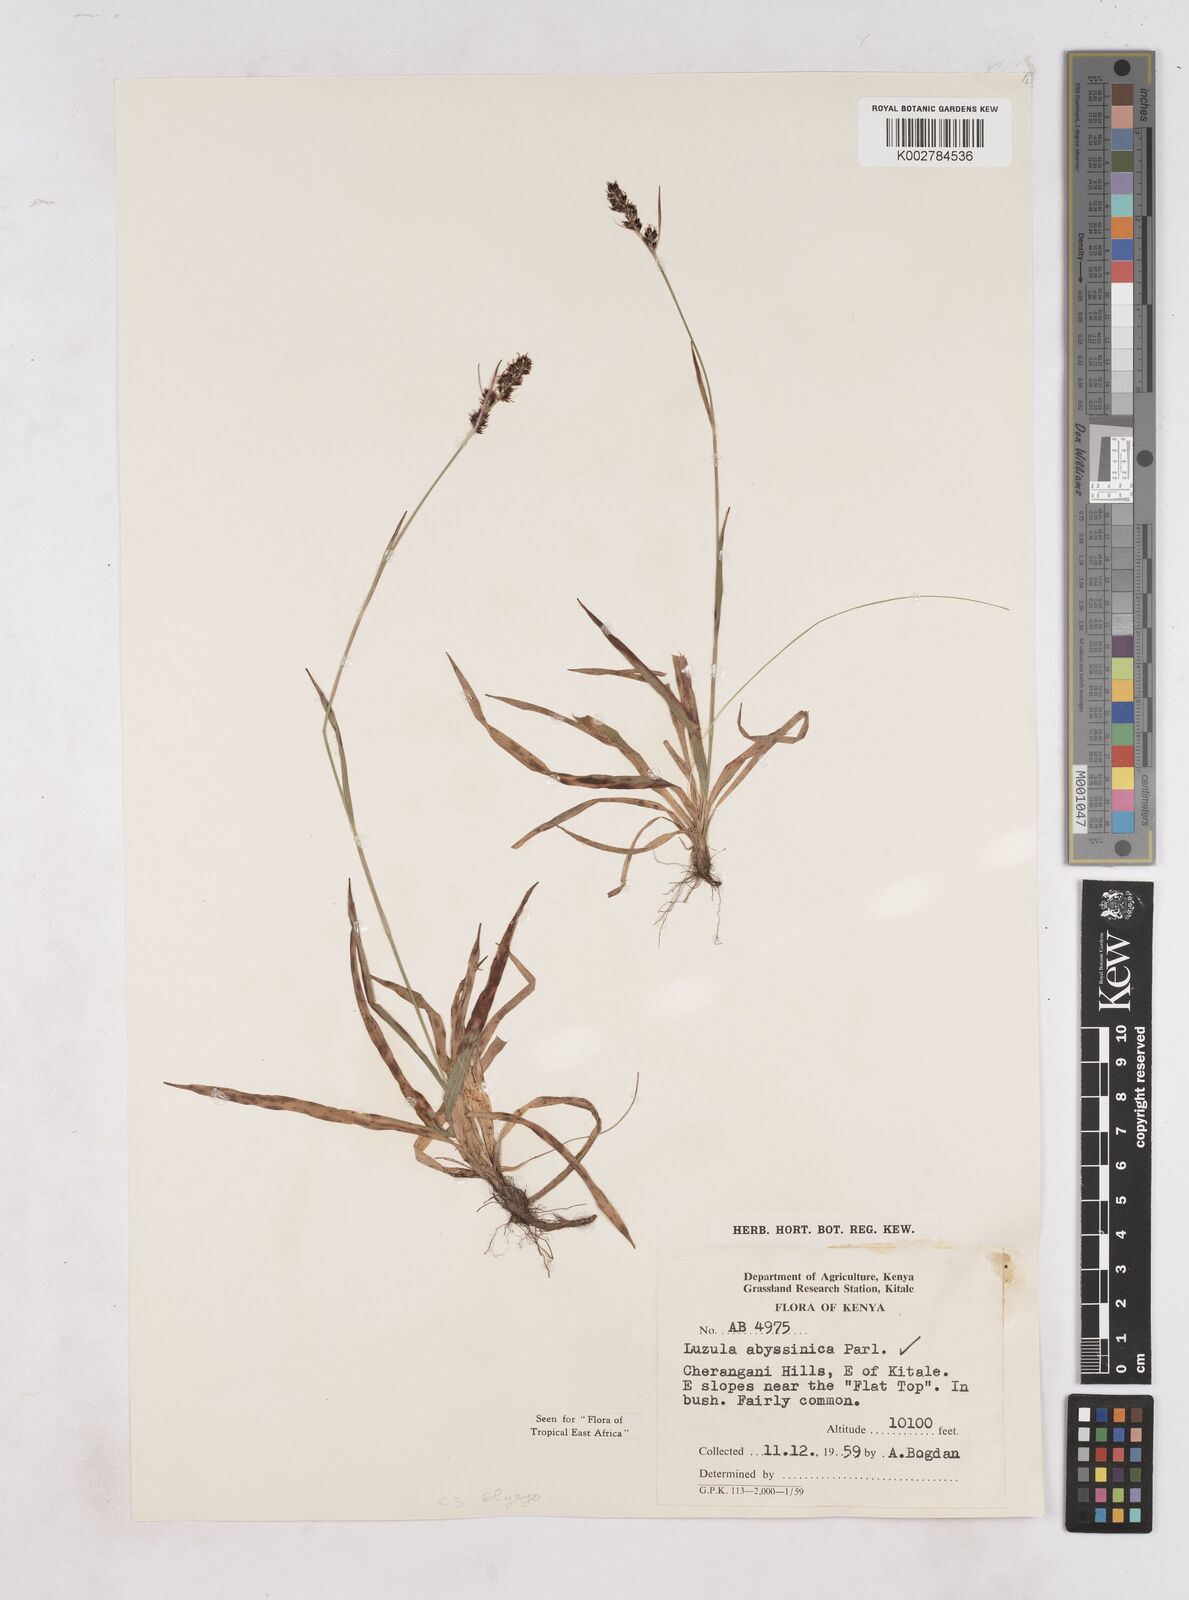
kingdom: Plantae
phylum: Tracheophyta
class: Liliopsida
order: Poales
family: Juncaceae
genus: Luzula
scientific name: Luzula abyssinica
